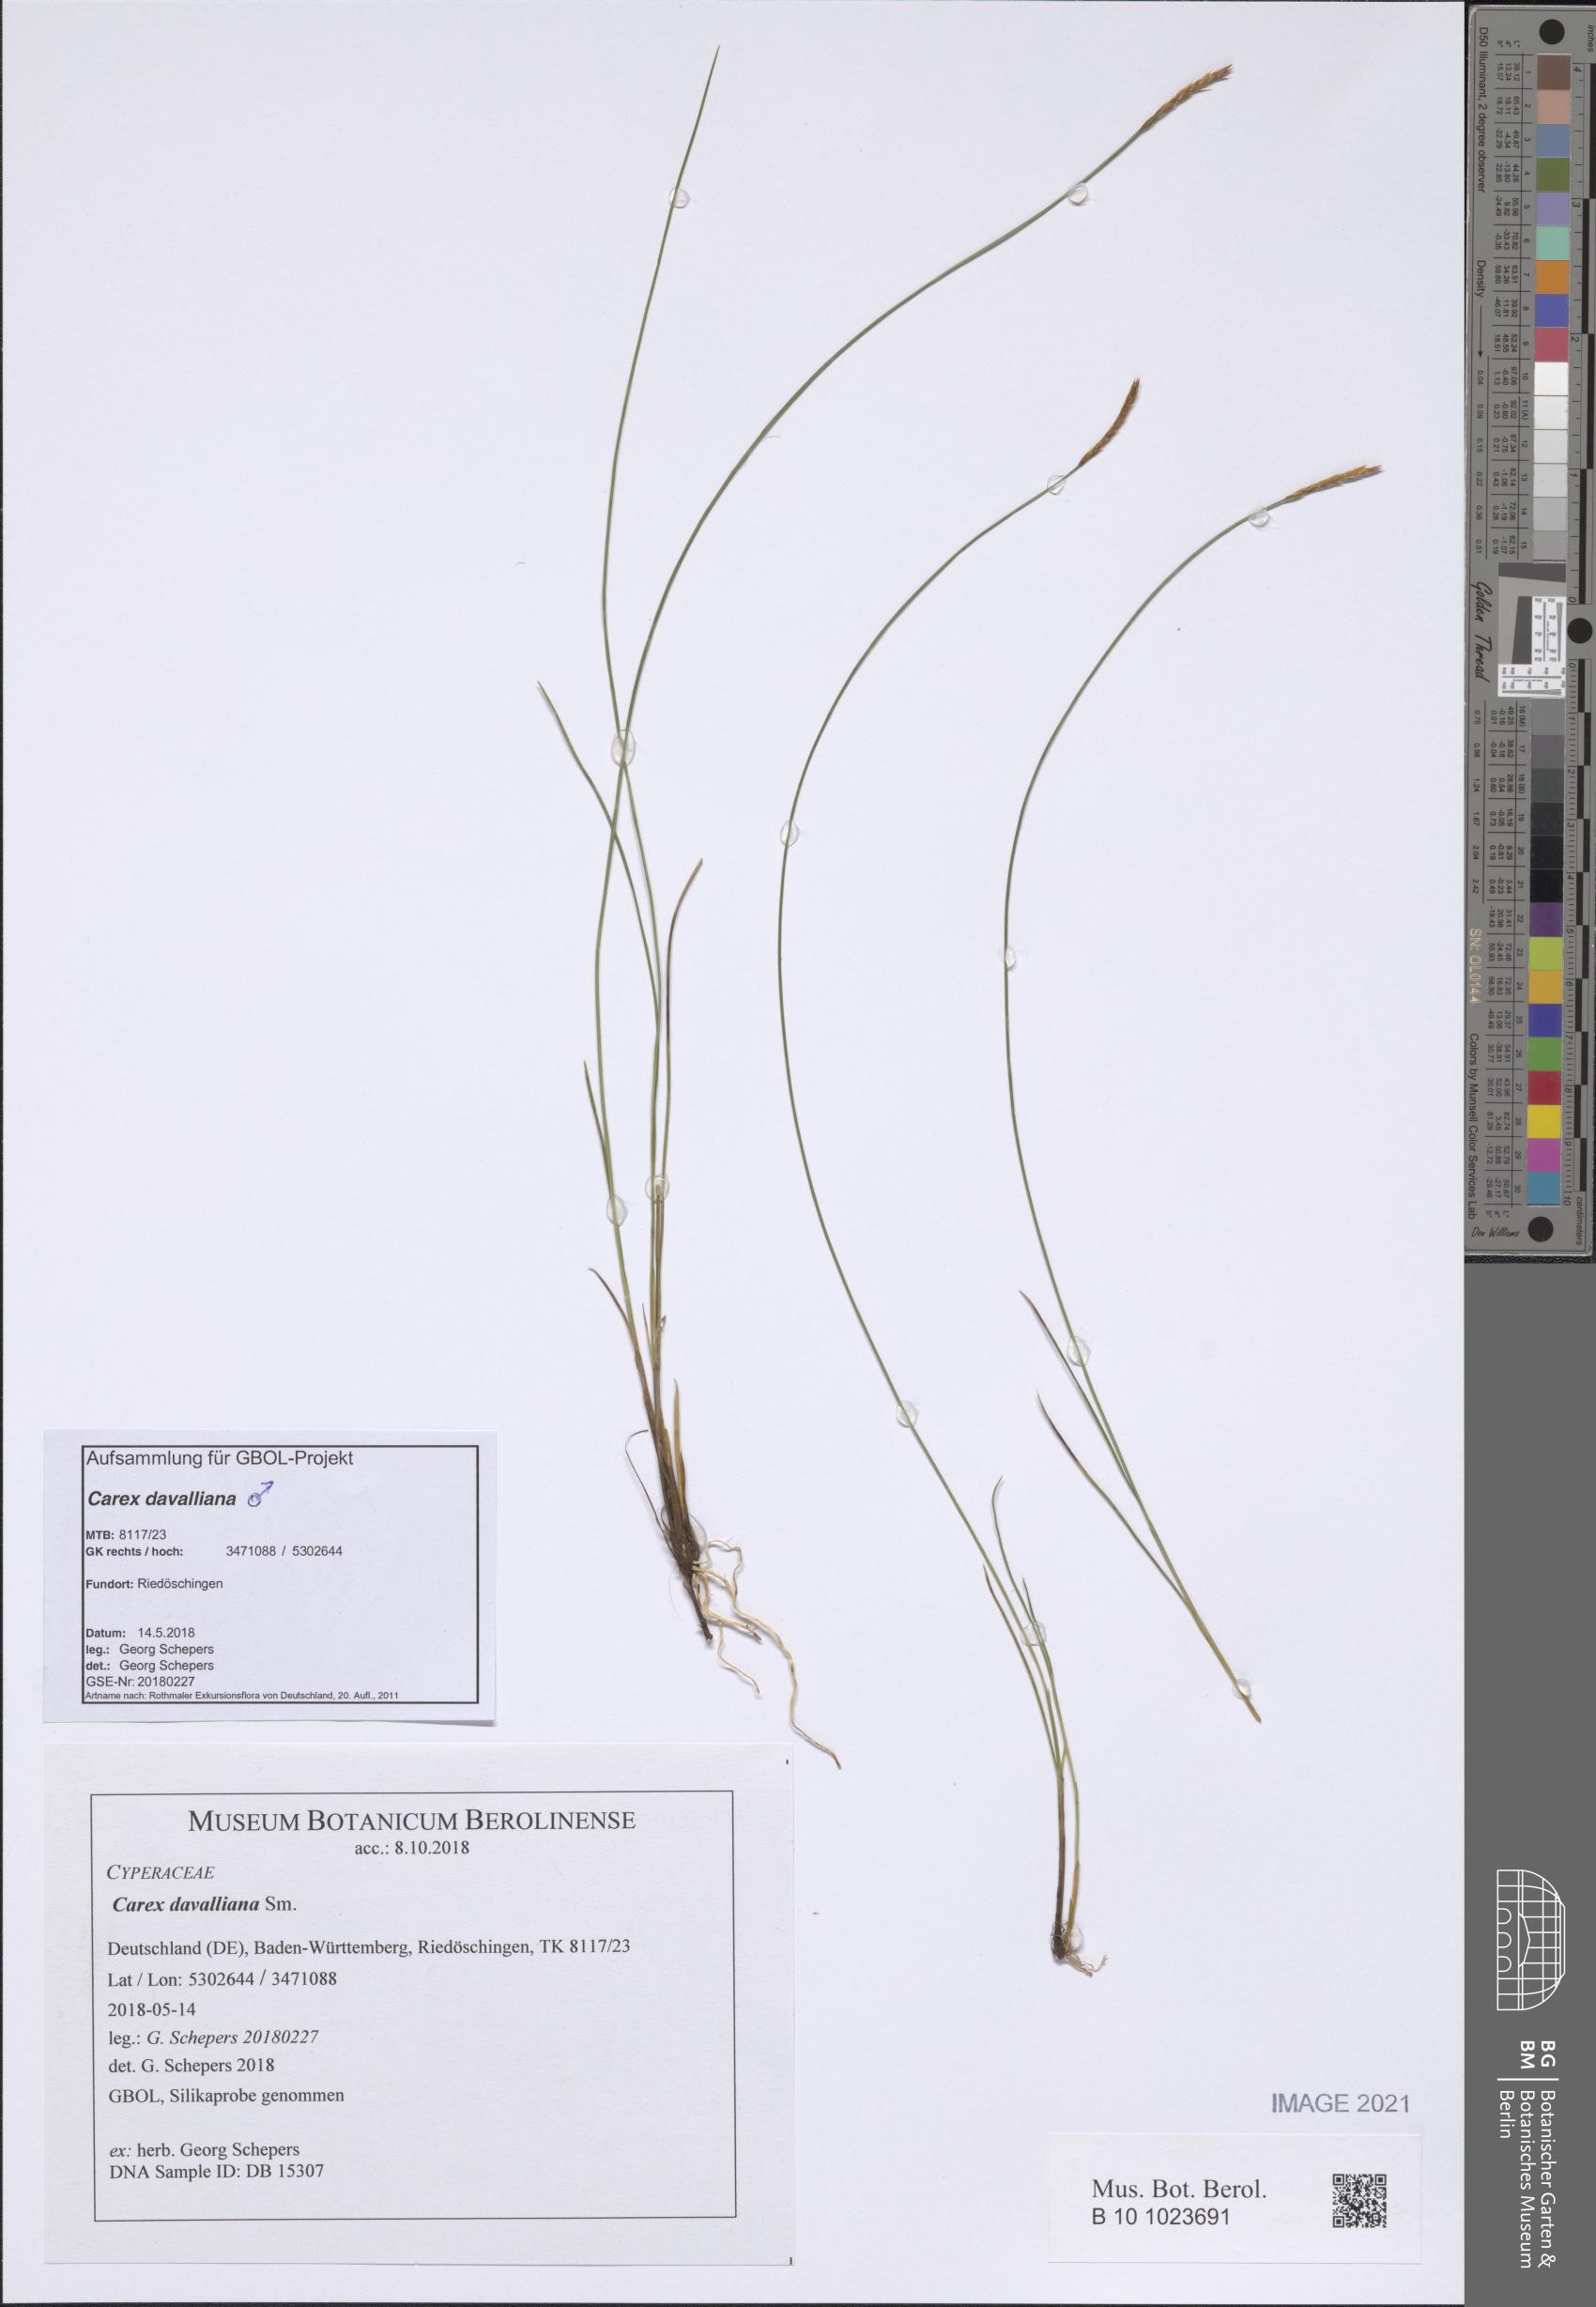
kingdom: Plantae
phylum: Tracheophyta
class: Liliopsida
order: Poales
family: Cyperaceae
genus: Carex
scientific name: Carex davalliana
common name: Davall's sedge
